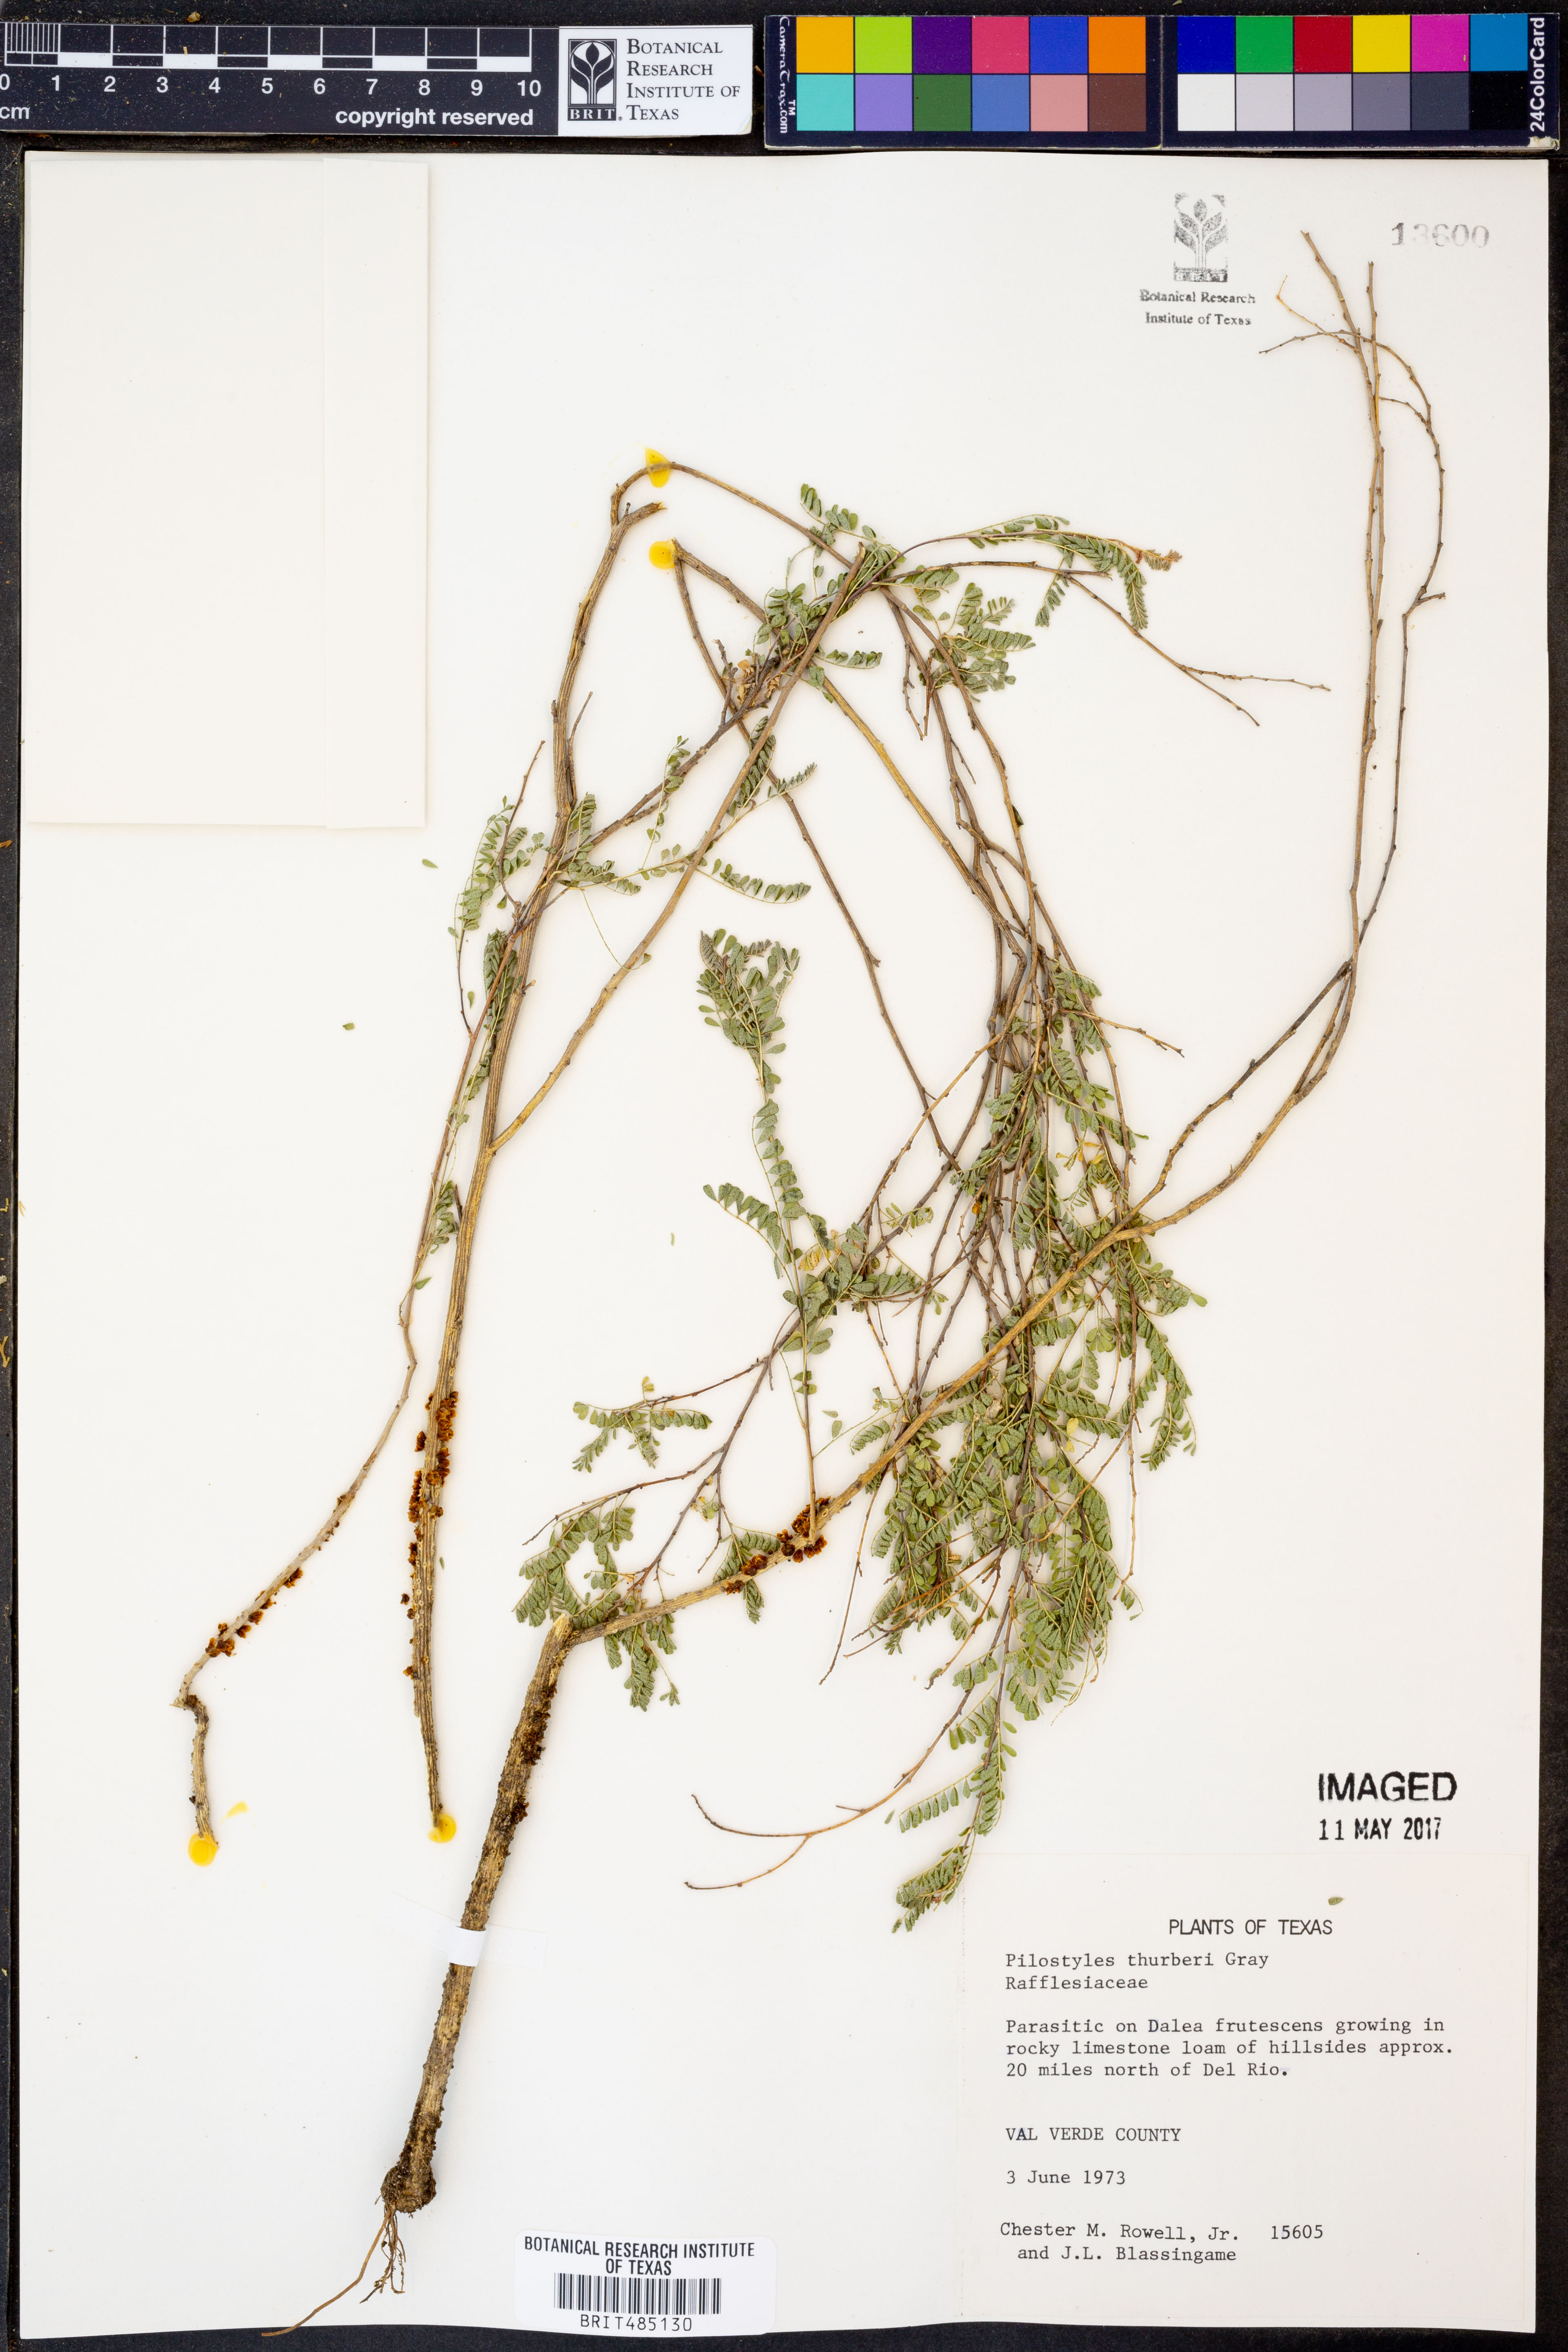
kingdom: Plantae
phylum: Tracheophyta
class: Magnoliopsida
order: Cucurbitales
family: Apodanthaceae
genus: Pilostyles
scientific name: Pilostyles thurberi
